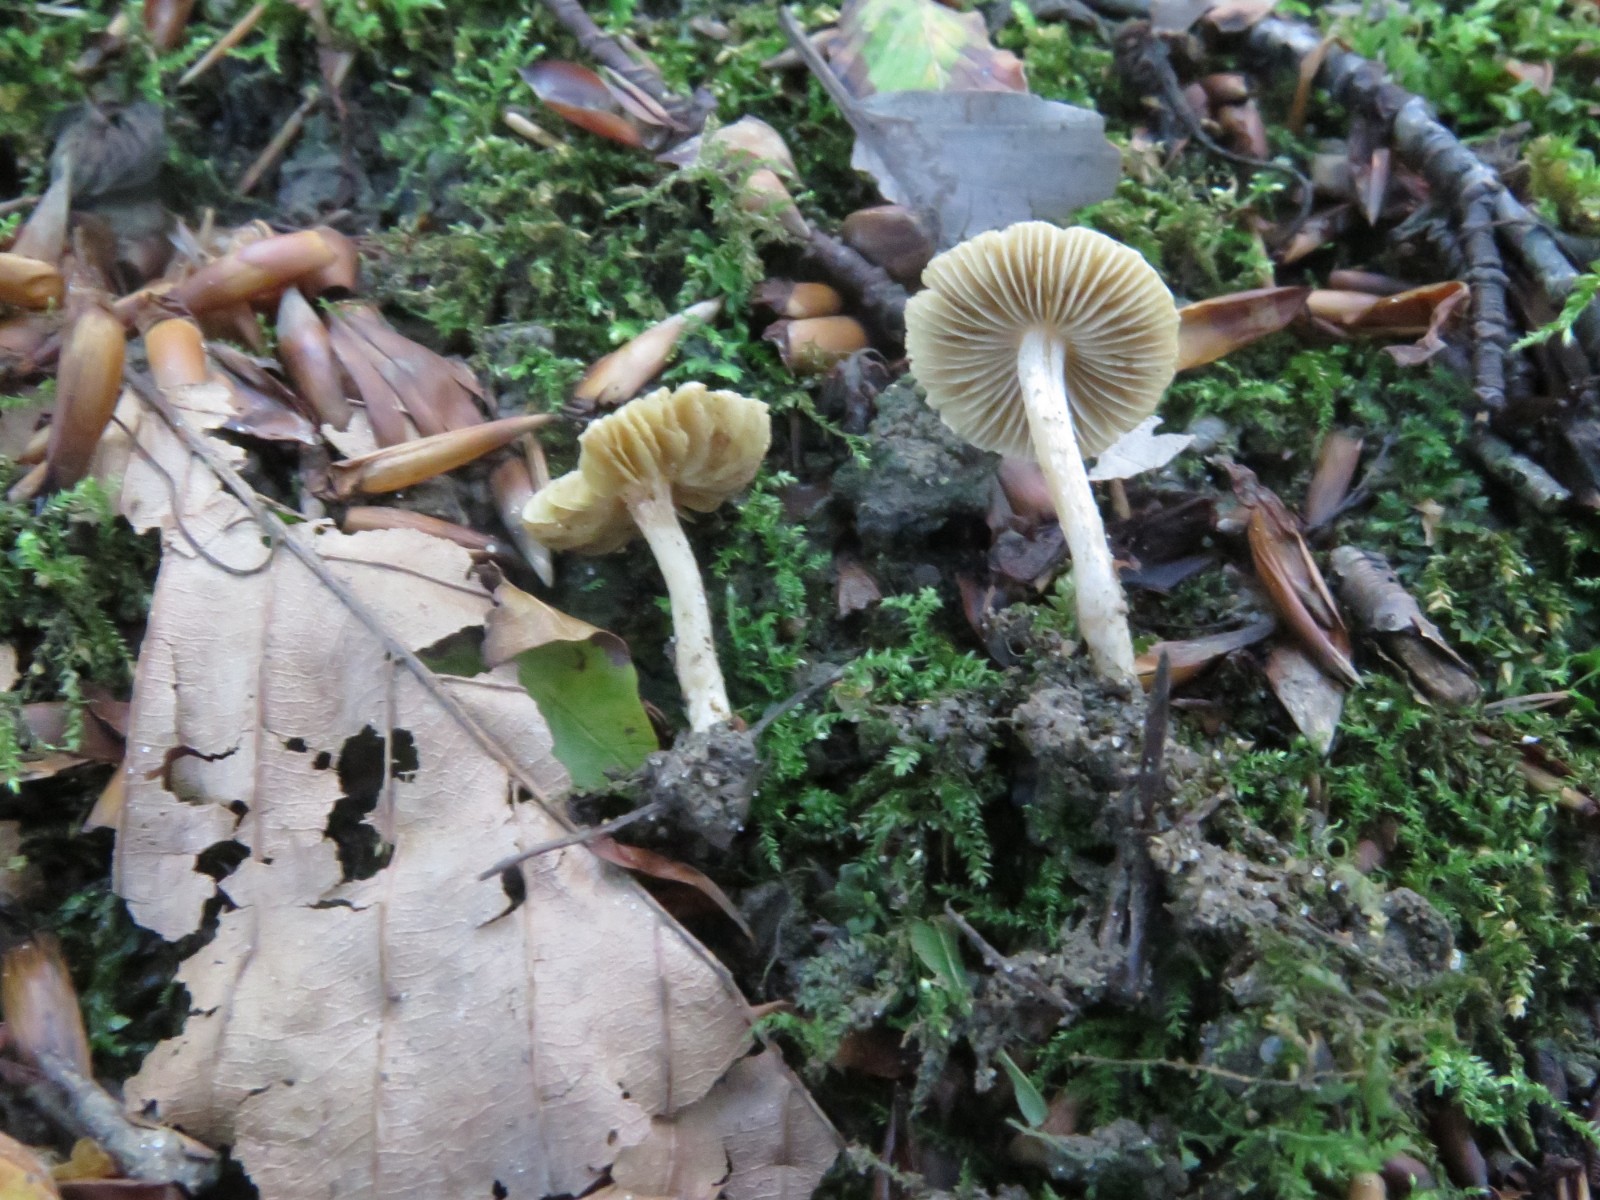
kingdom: Fungi
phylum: Basidiomycota
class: Agaricomycetes
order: Agaricales
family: Inocybaceae
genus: Inocybe
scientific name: Inocybe hirtella
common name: mandel-trævlhat
